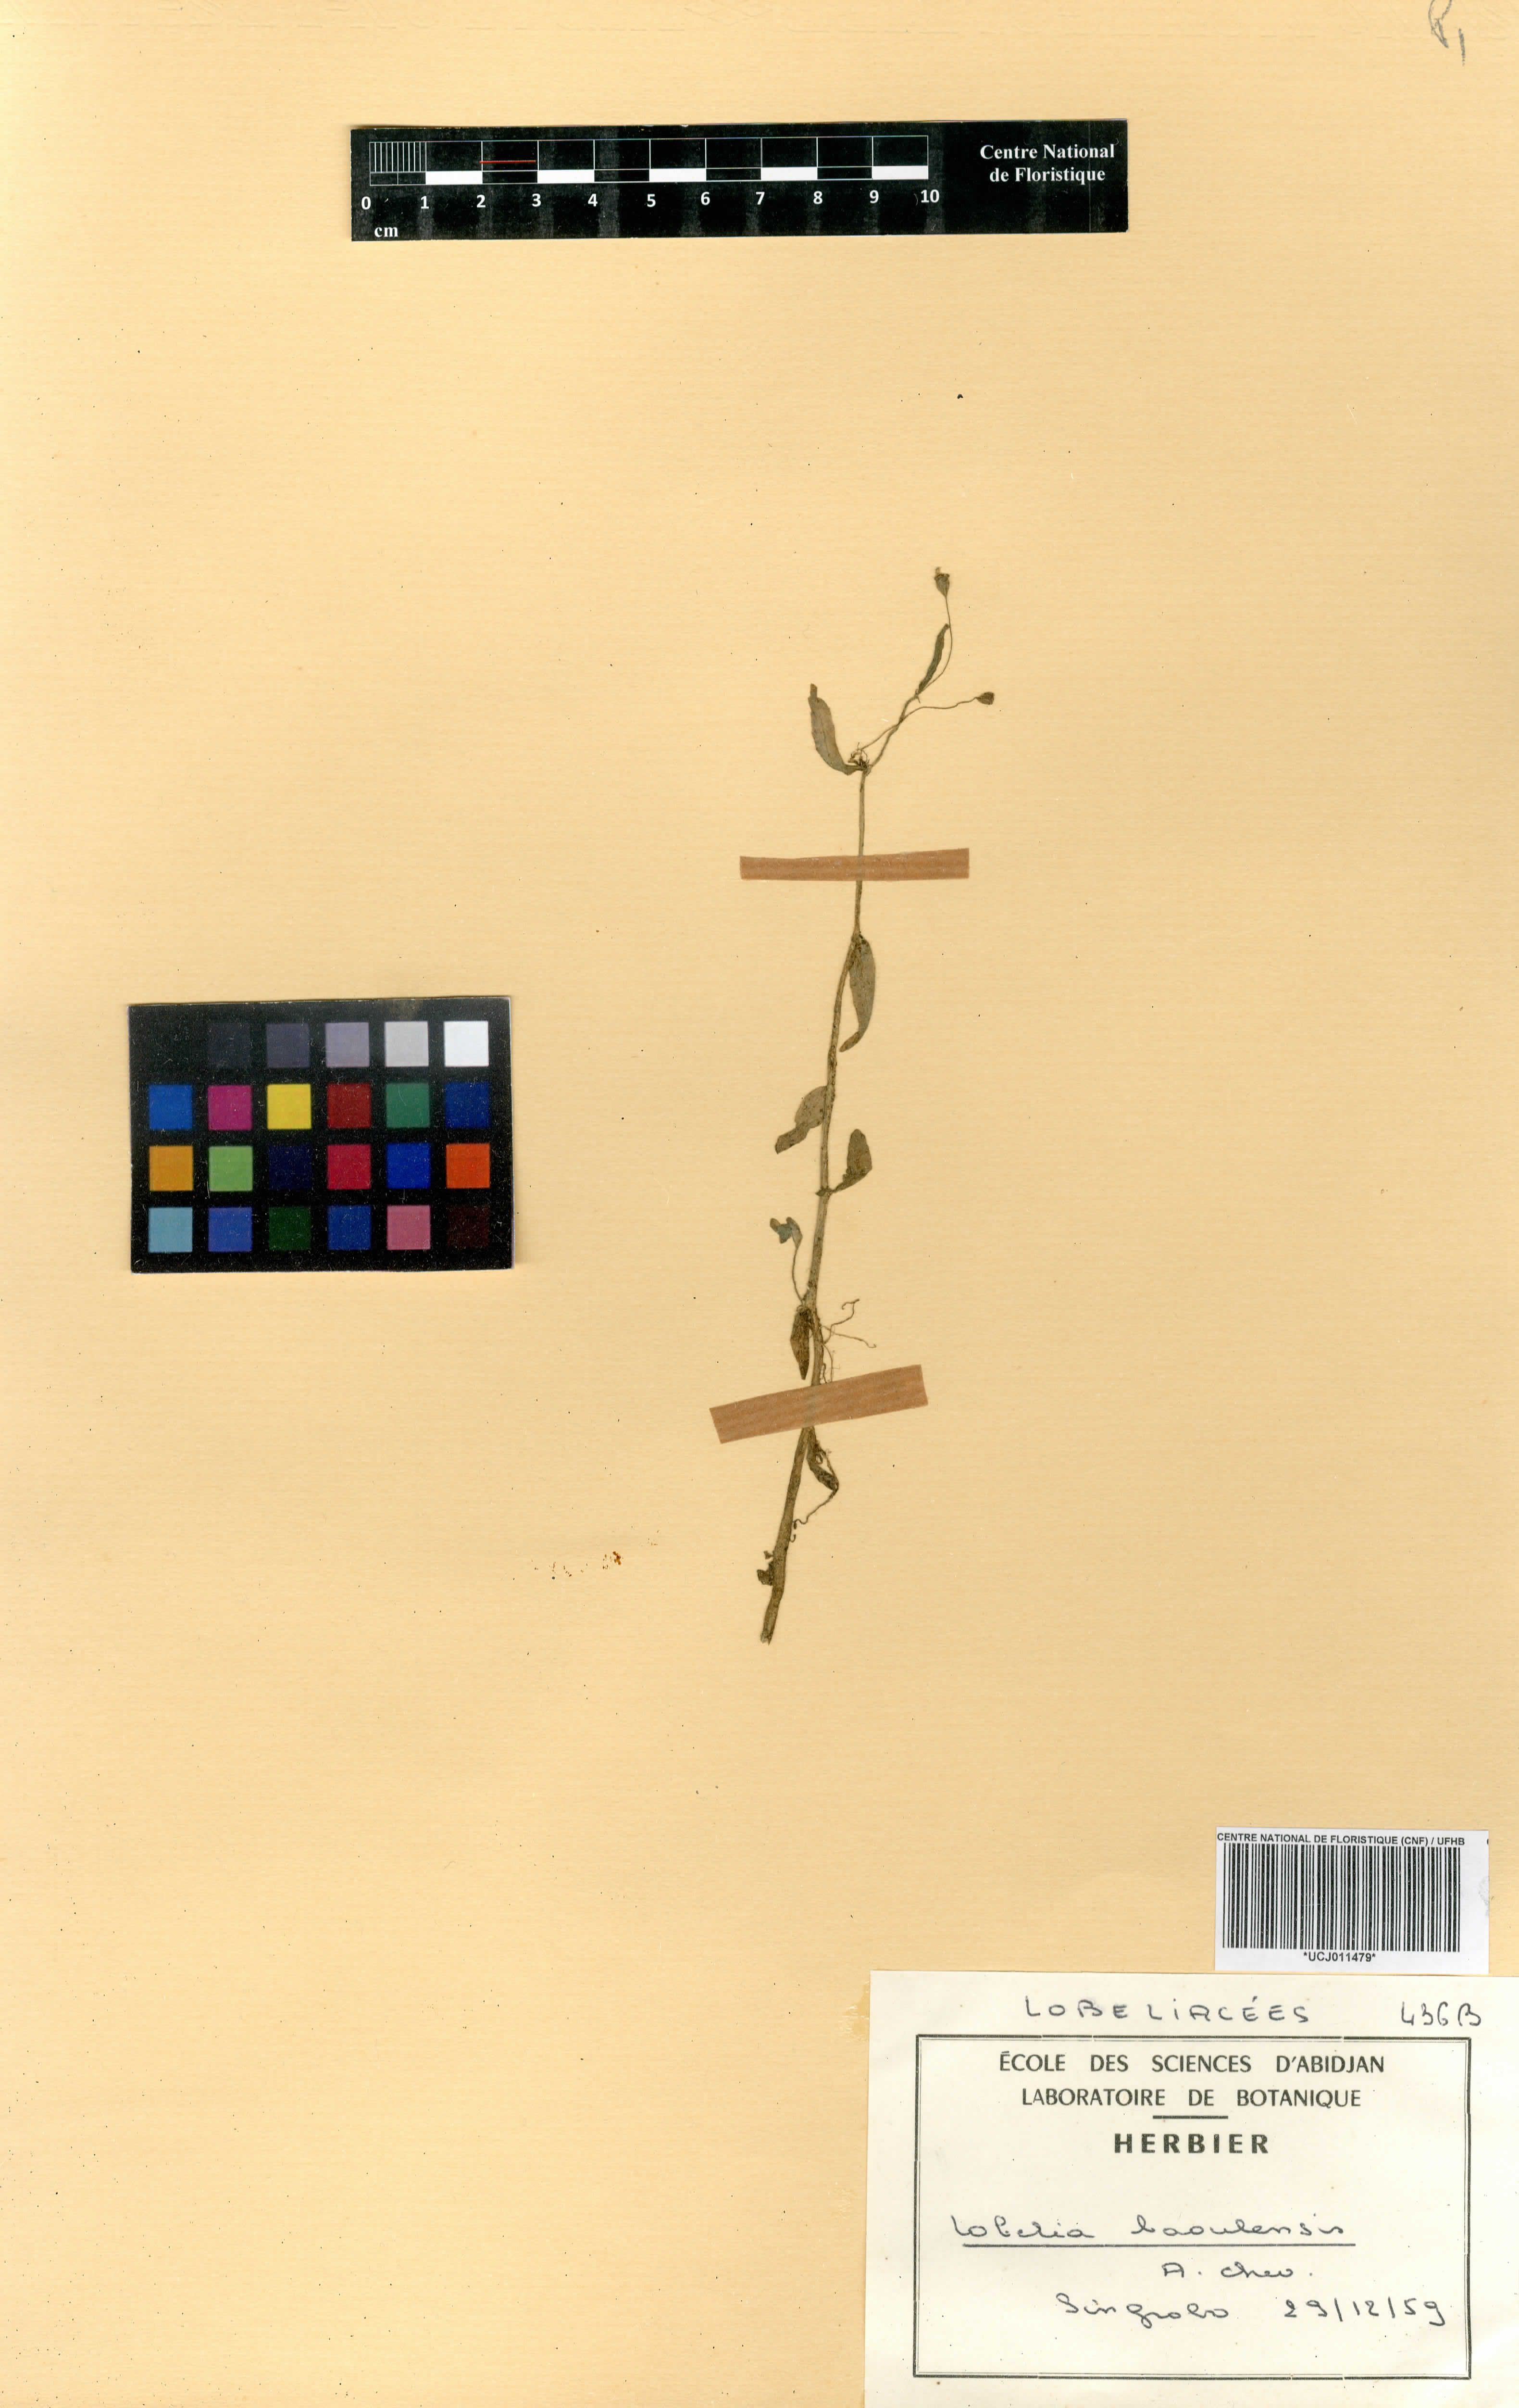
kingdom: Plantae
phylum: Tracheophyta
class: Magnoliopsida
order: Asterales
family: Campanulaceae
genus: Lobelia
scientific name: Lobelia djurensis
